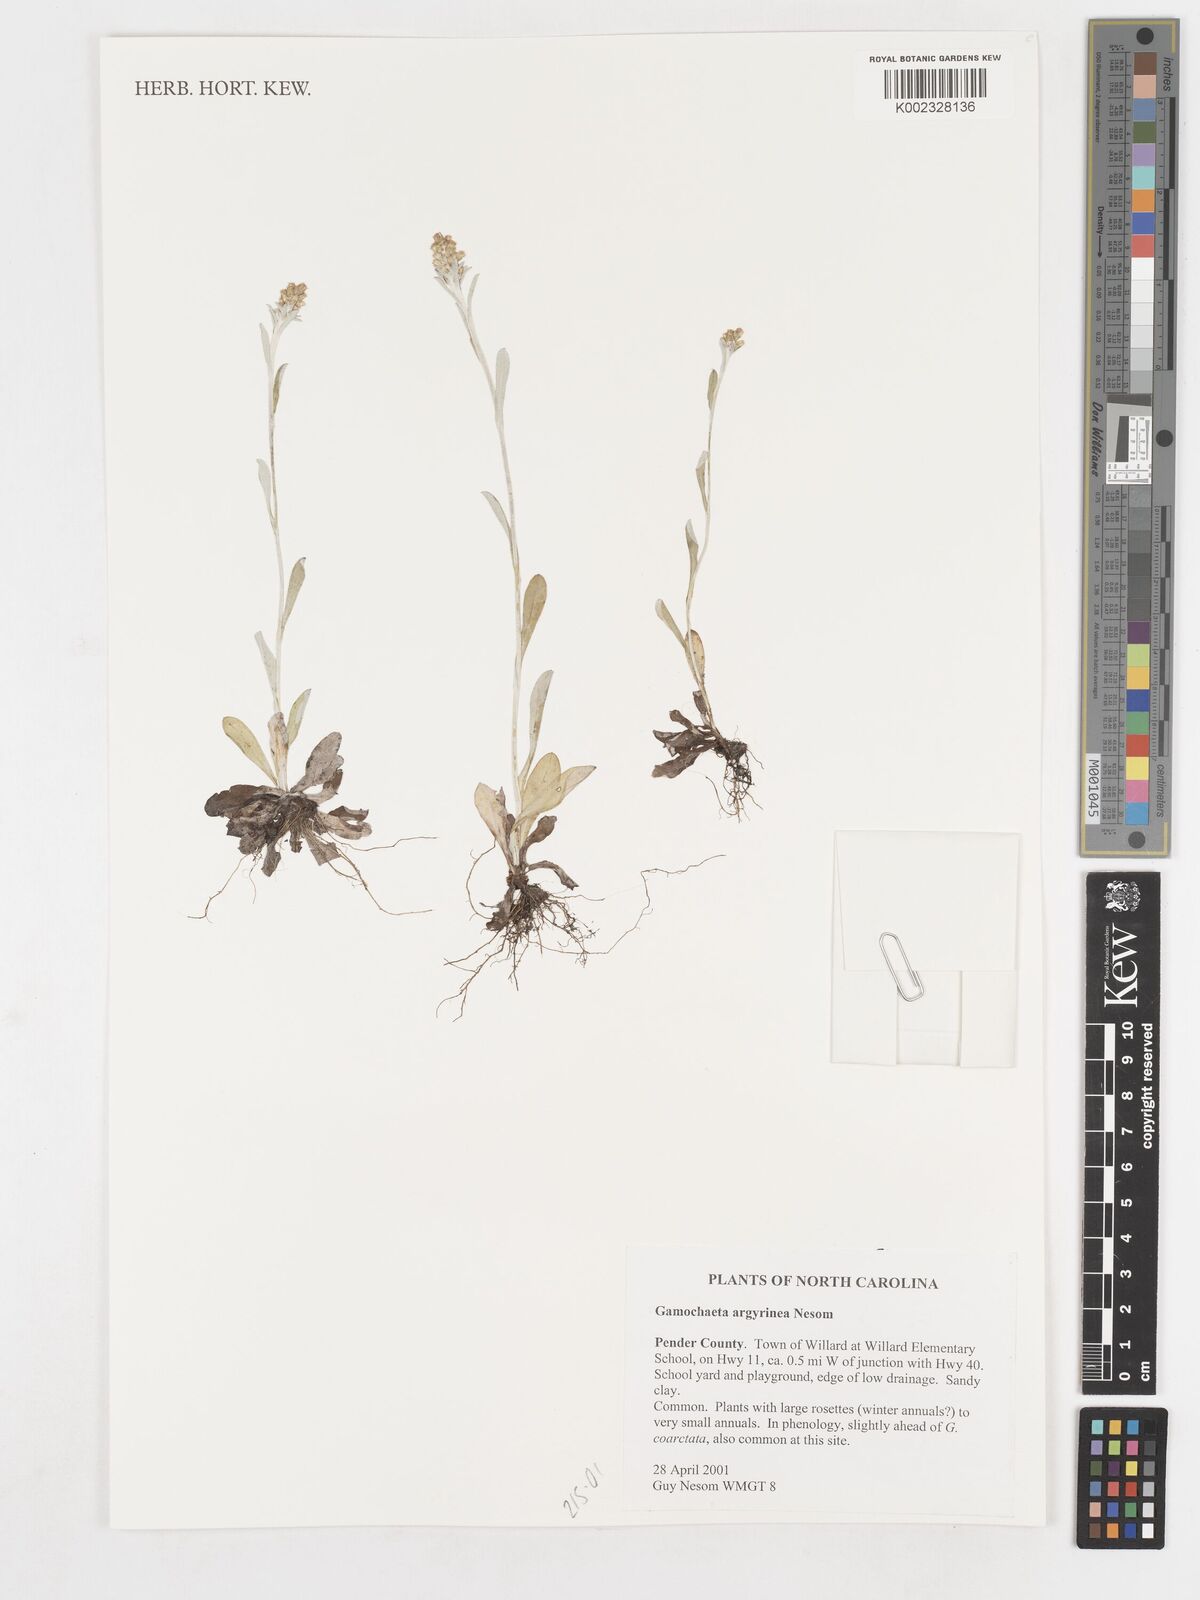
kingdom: Plantae
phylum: Tracheophyta
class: Magnoliopsida
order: Asterales
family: Asteraceae
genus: Gamochaeta
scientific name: Gamochaeta argyrinea
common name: Silvery cudweed
